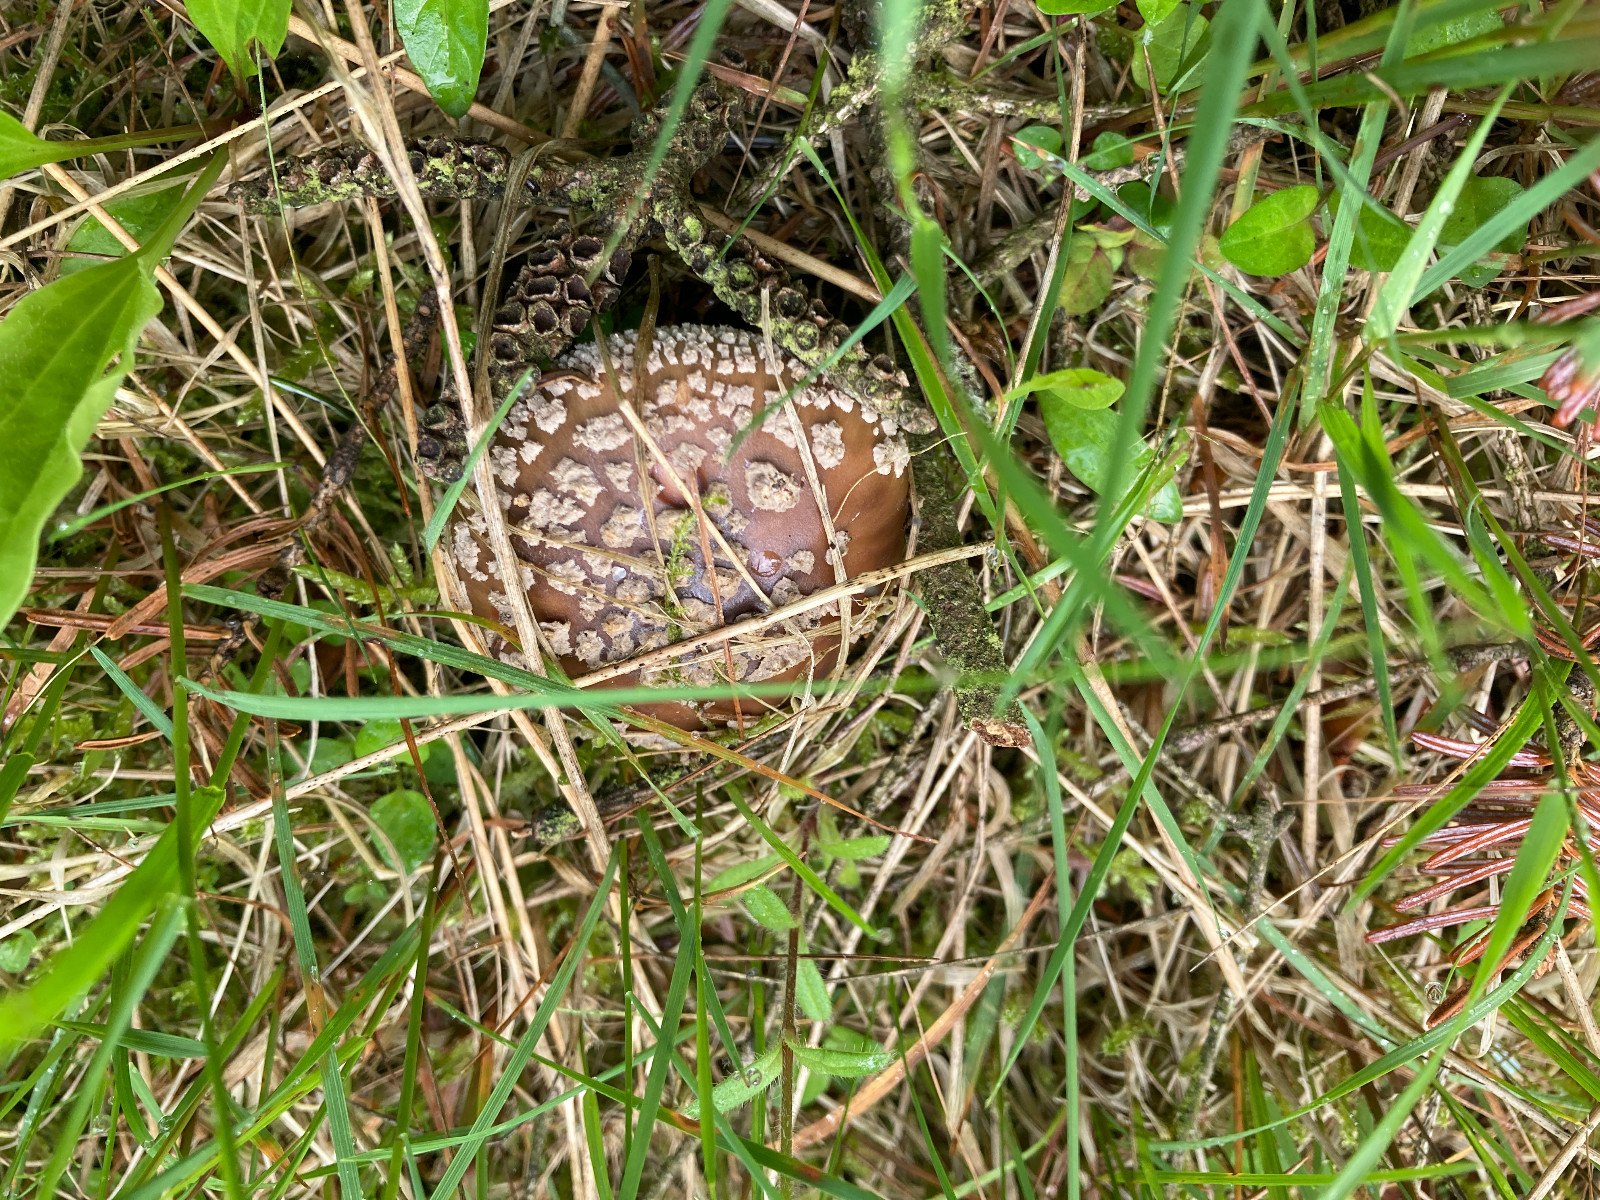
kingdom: Fungi
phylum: Basidiomycota
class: Agaricomycetes
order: Agaricales
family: Amanitaceae
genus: Amanita
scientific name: Amanita rubescens
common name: rødmende fluesvamp
